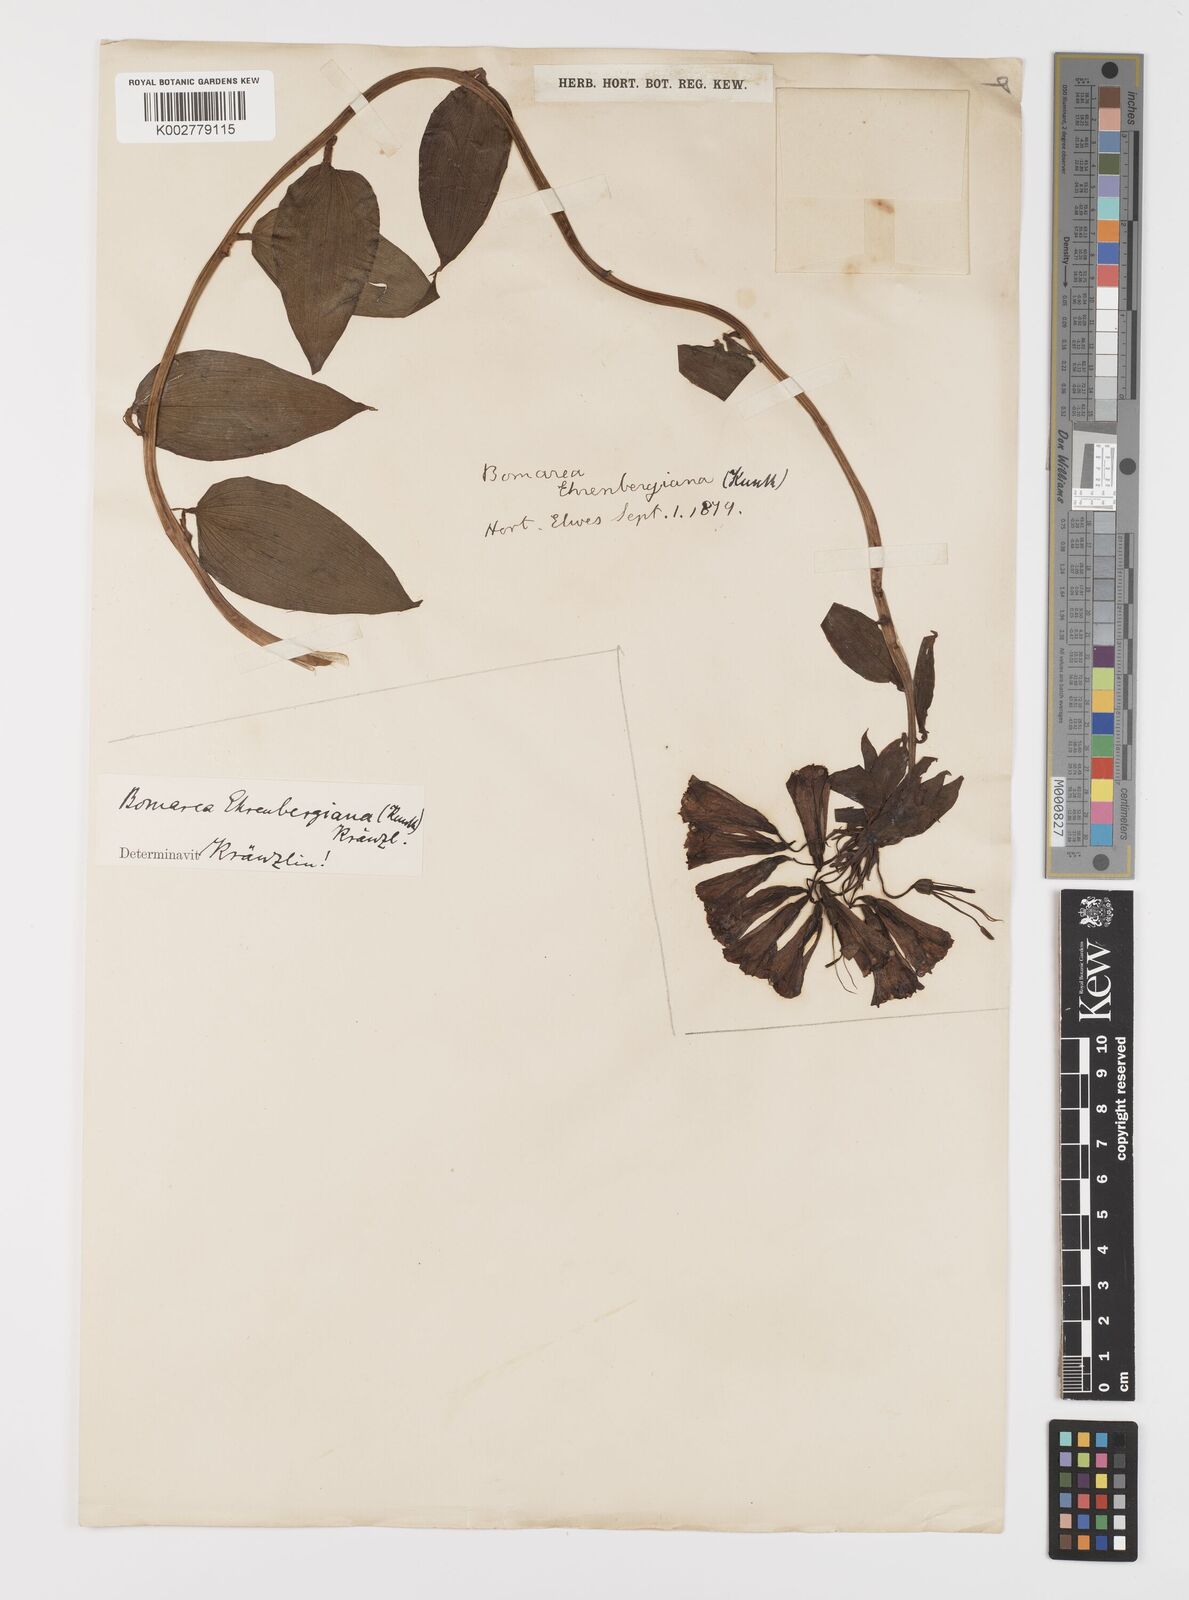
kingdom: Plantae
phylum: Tracheophyta
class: Liliopsida
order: Liliales
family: Alstroemeriaceae
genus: Bomarea
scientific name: Bomarea acutifolia
